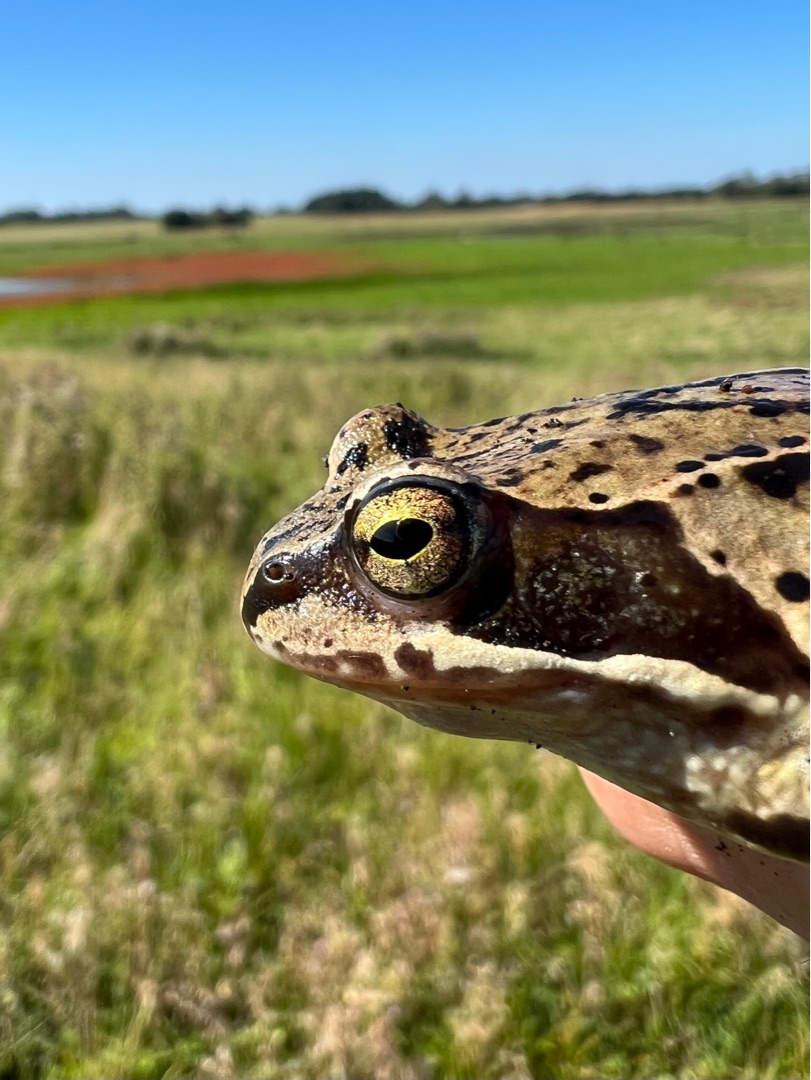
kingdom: Animalia
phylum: Chordata
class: Amphibia
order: Anura
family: Ranidae
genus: Rana
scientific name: Rana temporaria
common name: Butsnudet frø
